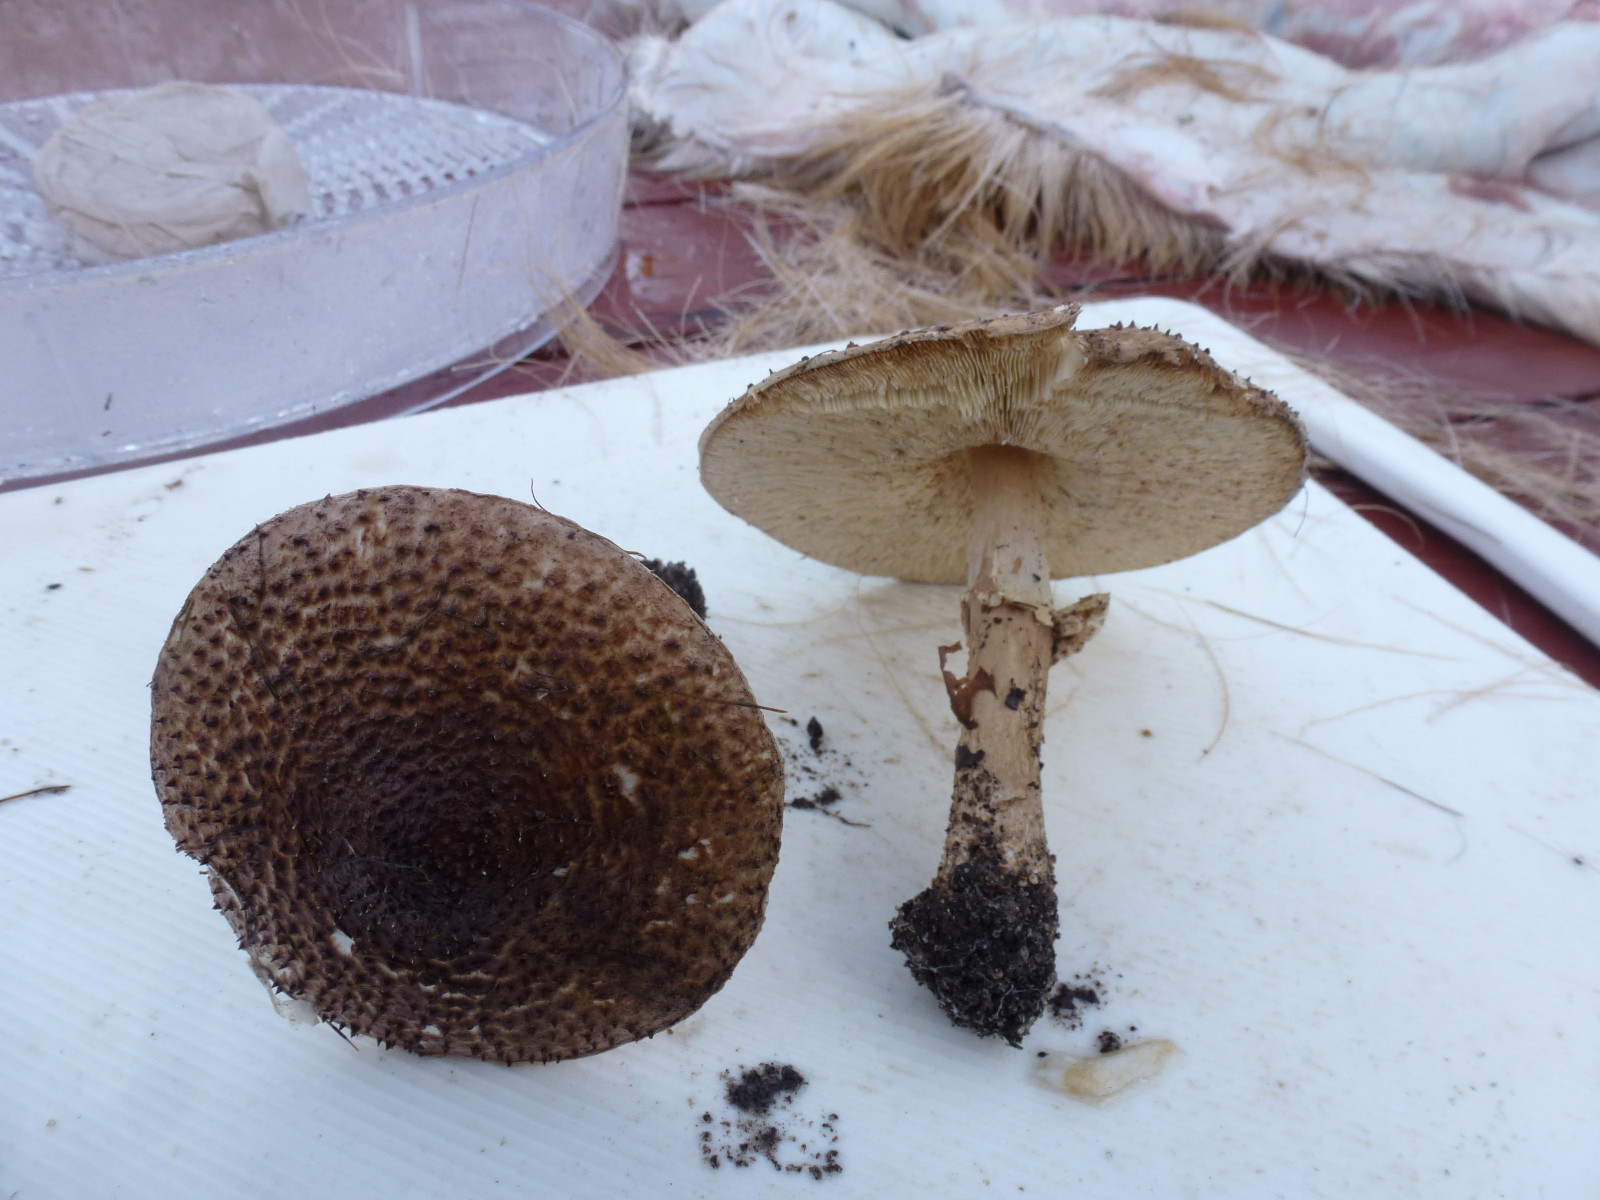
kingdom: Fungi
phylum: Basidiomycota
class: Agaricomycetes
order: Agaricales
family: Agaricaceae
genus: Echinoderma
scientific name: Echinoderma asperum
